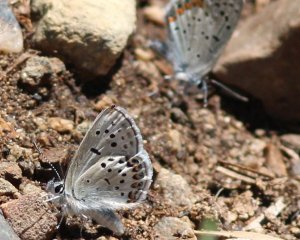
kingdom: Animalia
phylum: Arthropoda
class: Insecta
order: Lepidoptera
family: Lycaenidae
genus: Plebejus
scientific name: Plebejus lupini
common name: Lupine Blue
